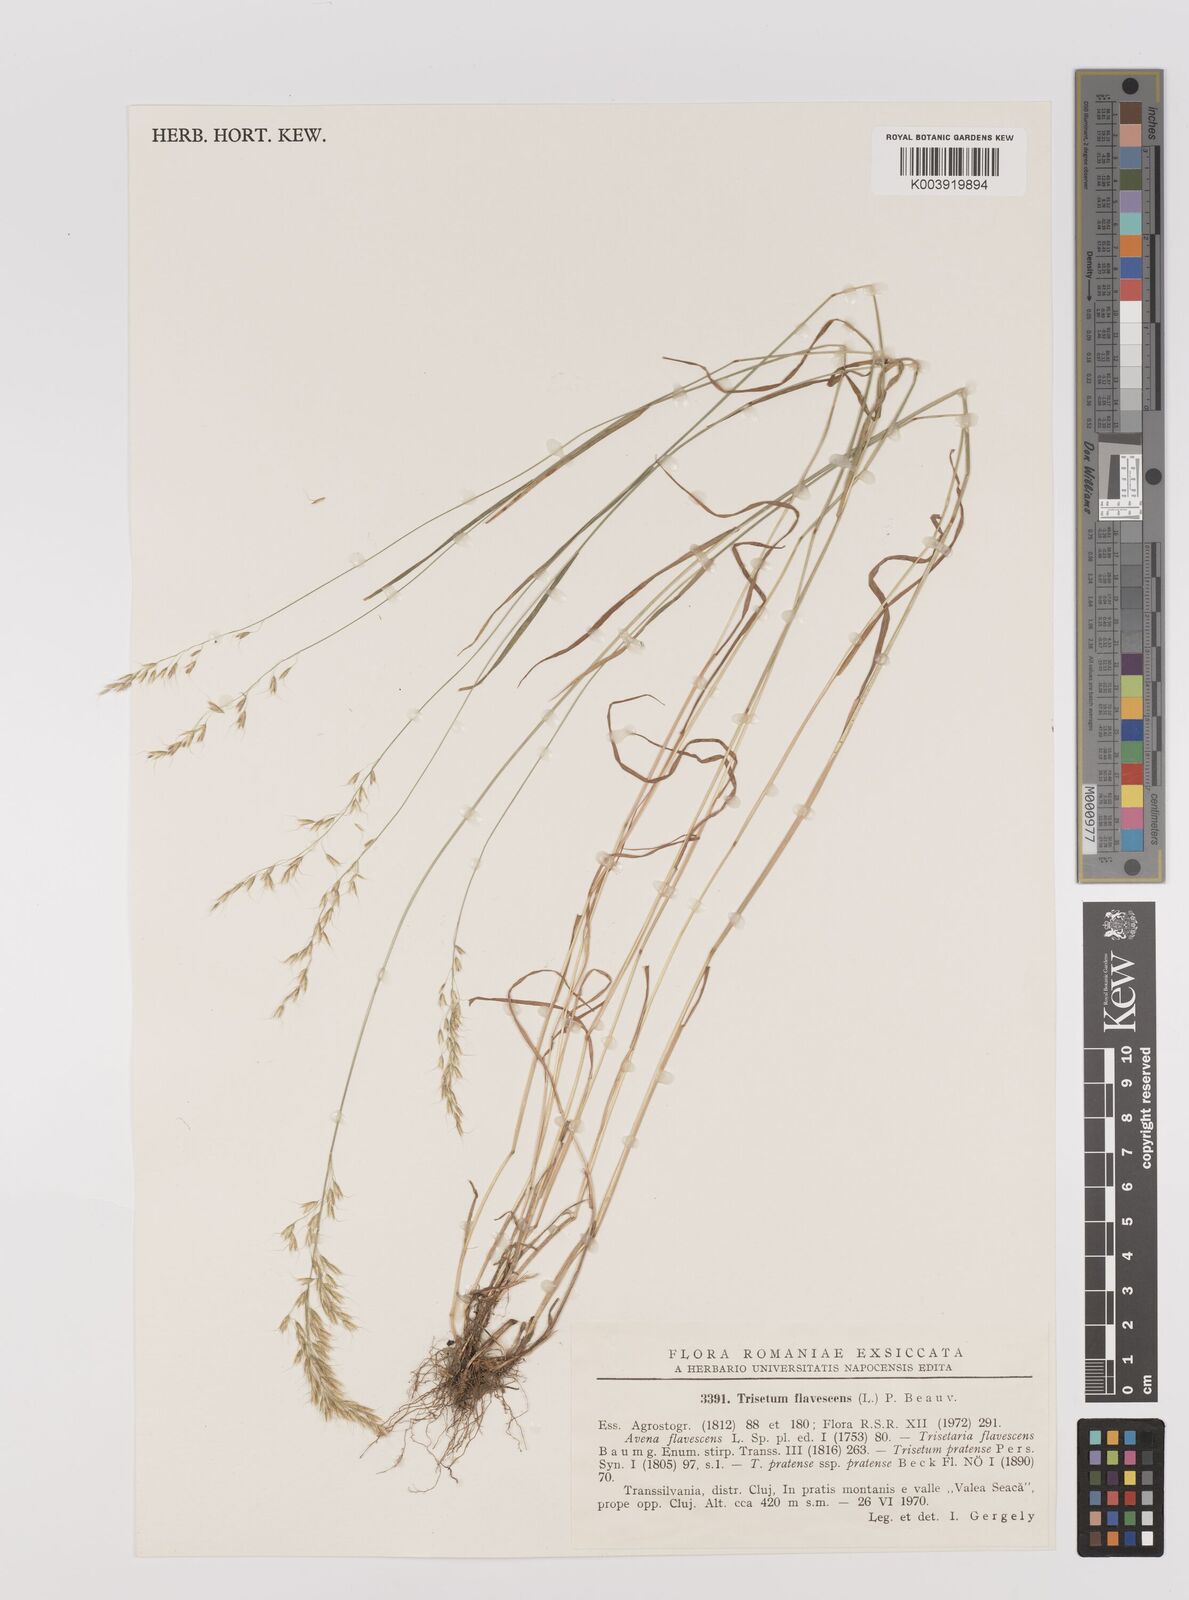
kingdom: Plantae
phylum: Tracheophyta
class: Liliopsida
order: Poales
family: Poaceae
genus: Trisetum
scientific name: Trisetum flavescens
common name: Yellow oat-grass
